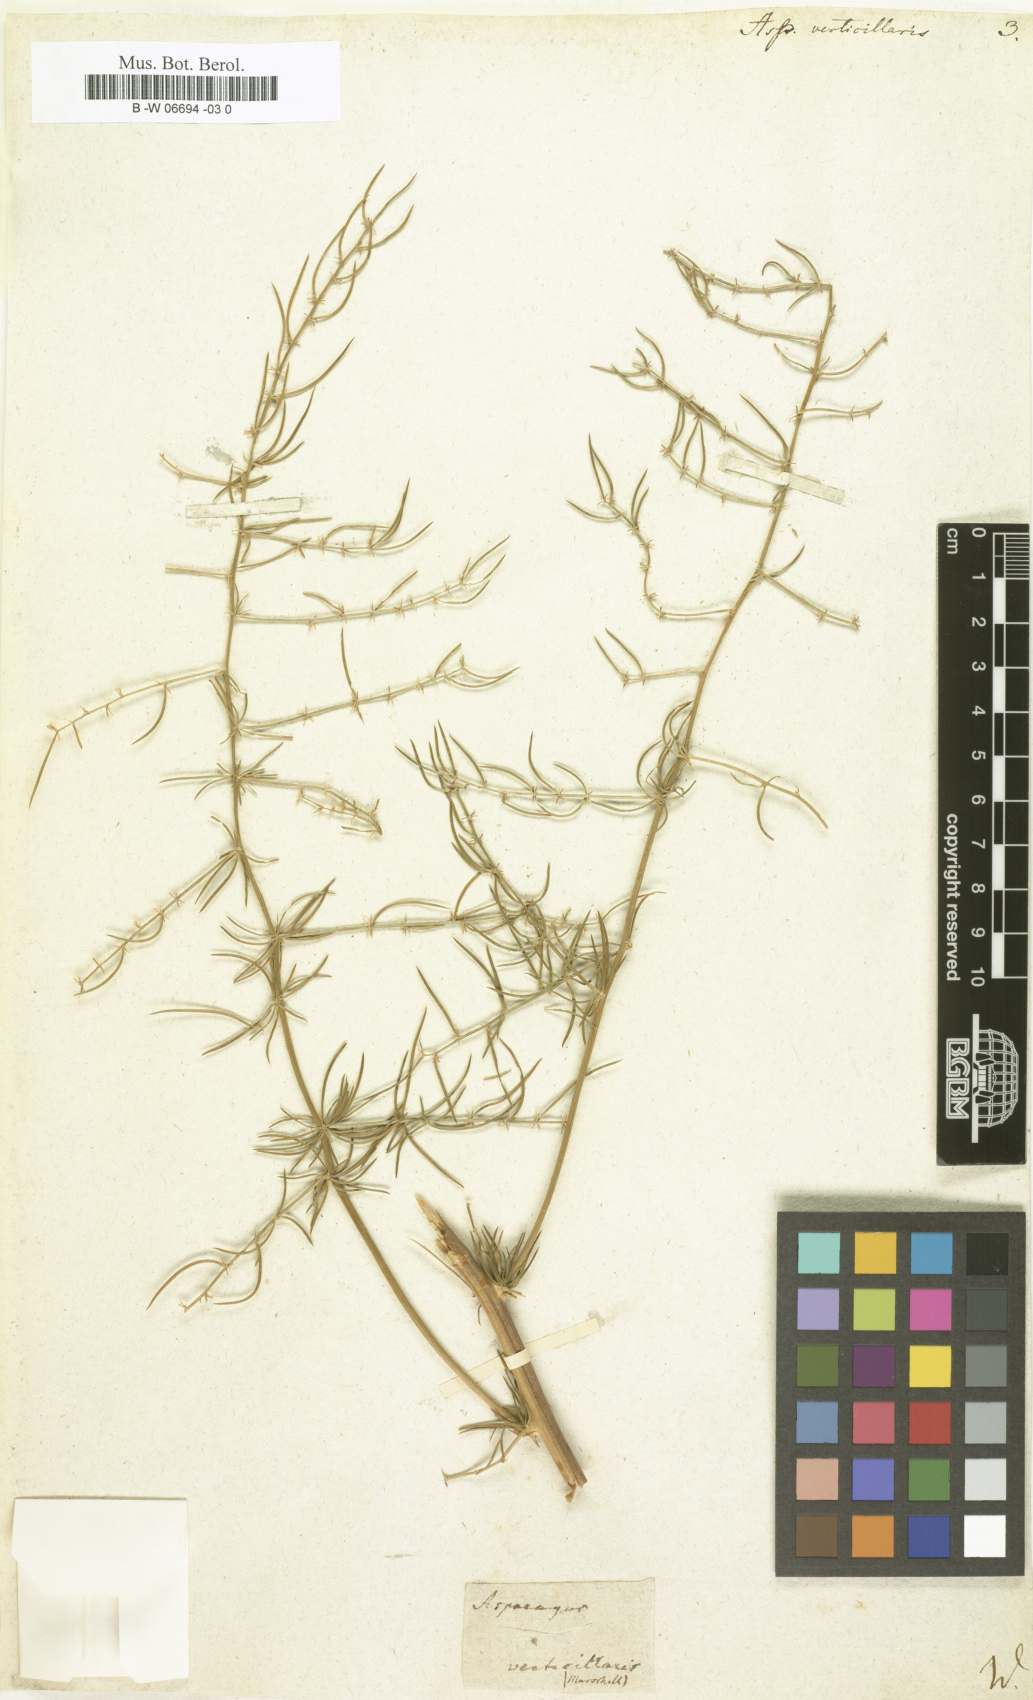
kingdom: Plantae
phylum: Tracheophyta
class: Liliopsida
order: Asparagales
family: Asparagaceae
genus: Asparagus
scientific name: Asparagus verticillatus
